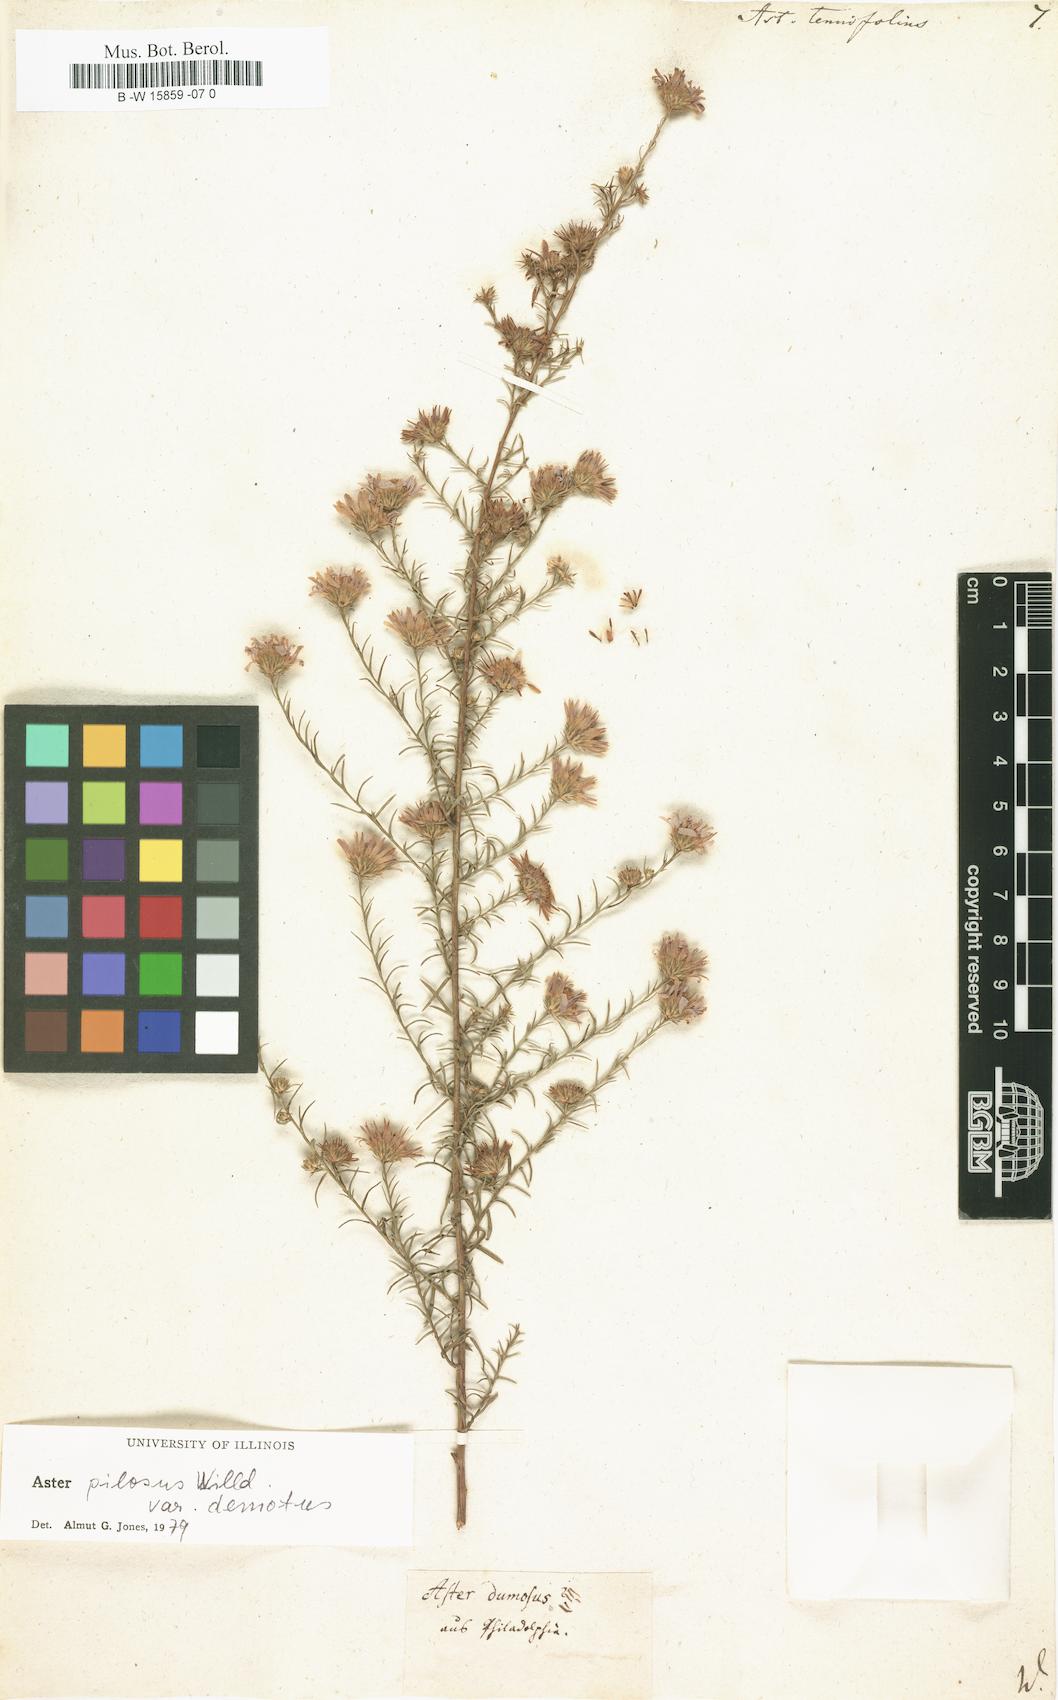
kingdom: Plantae
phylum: Tracheophyta
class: Magnoliopsida
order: Asterales
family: Asteraceae
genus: Symphyotrichum
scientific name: Symphyotrichum tenuifolium
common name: Perennial salt-marsh aster
